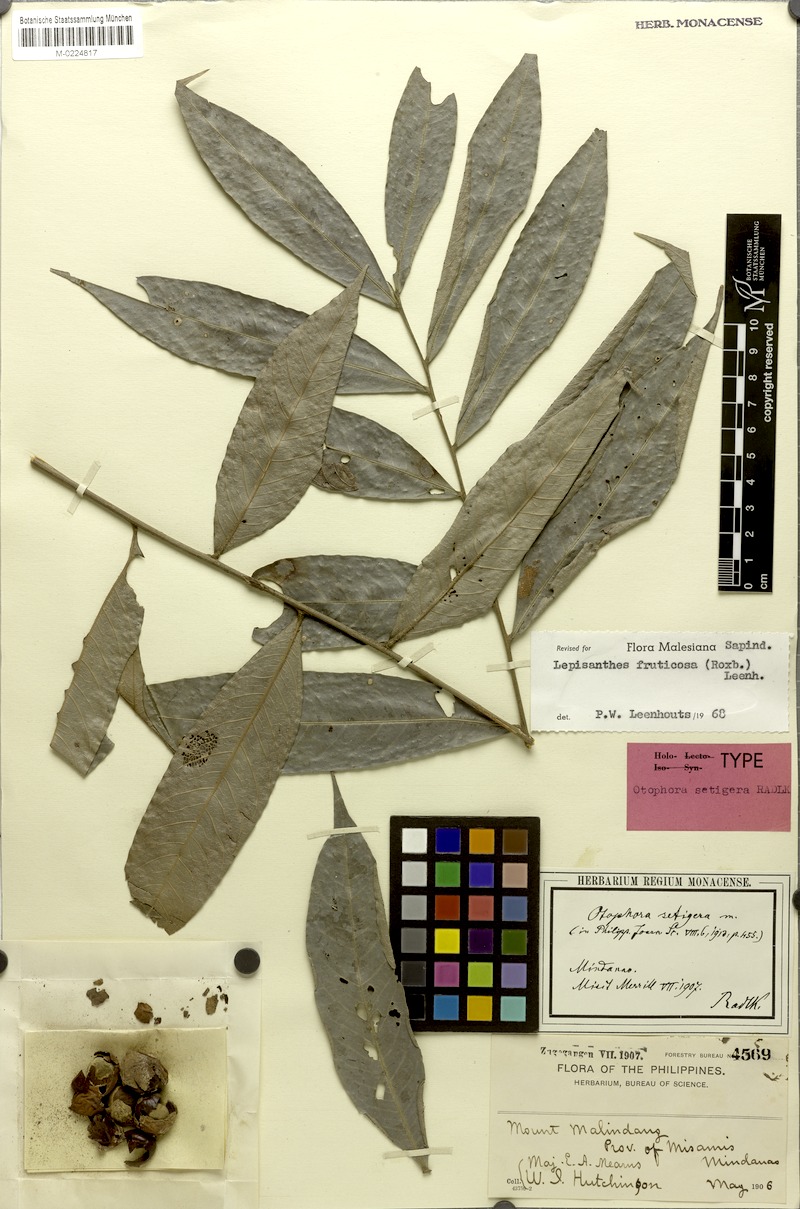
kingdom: Plantae
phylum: Tracheophyta
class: Magnoliopsida
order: Sapindales
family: Sapindaceae
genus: Lepisanthes
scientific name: Lepisanthes fruticosa
